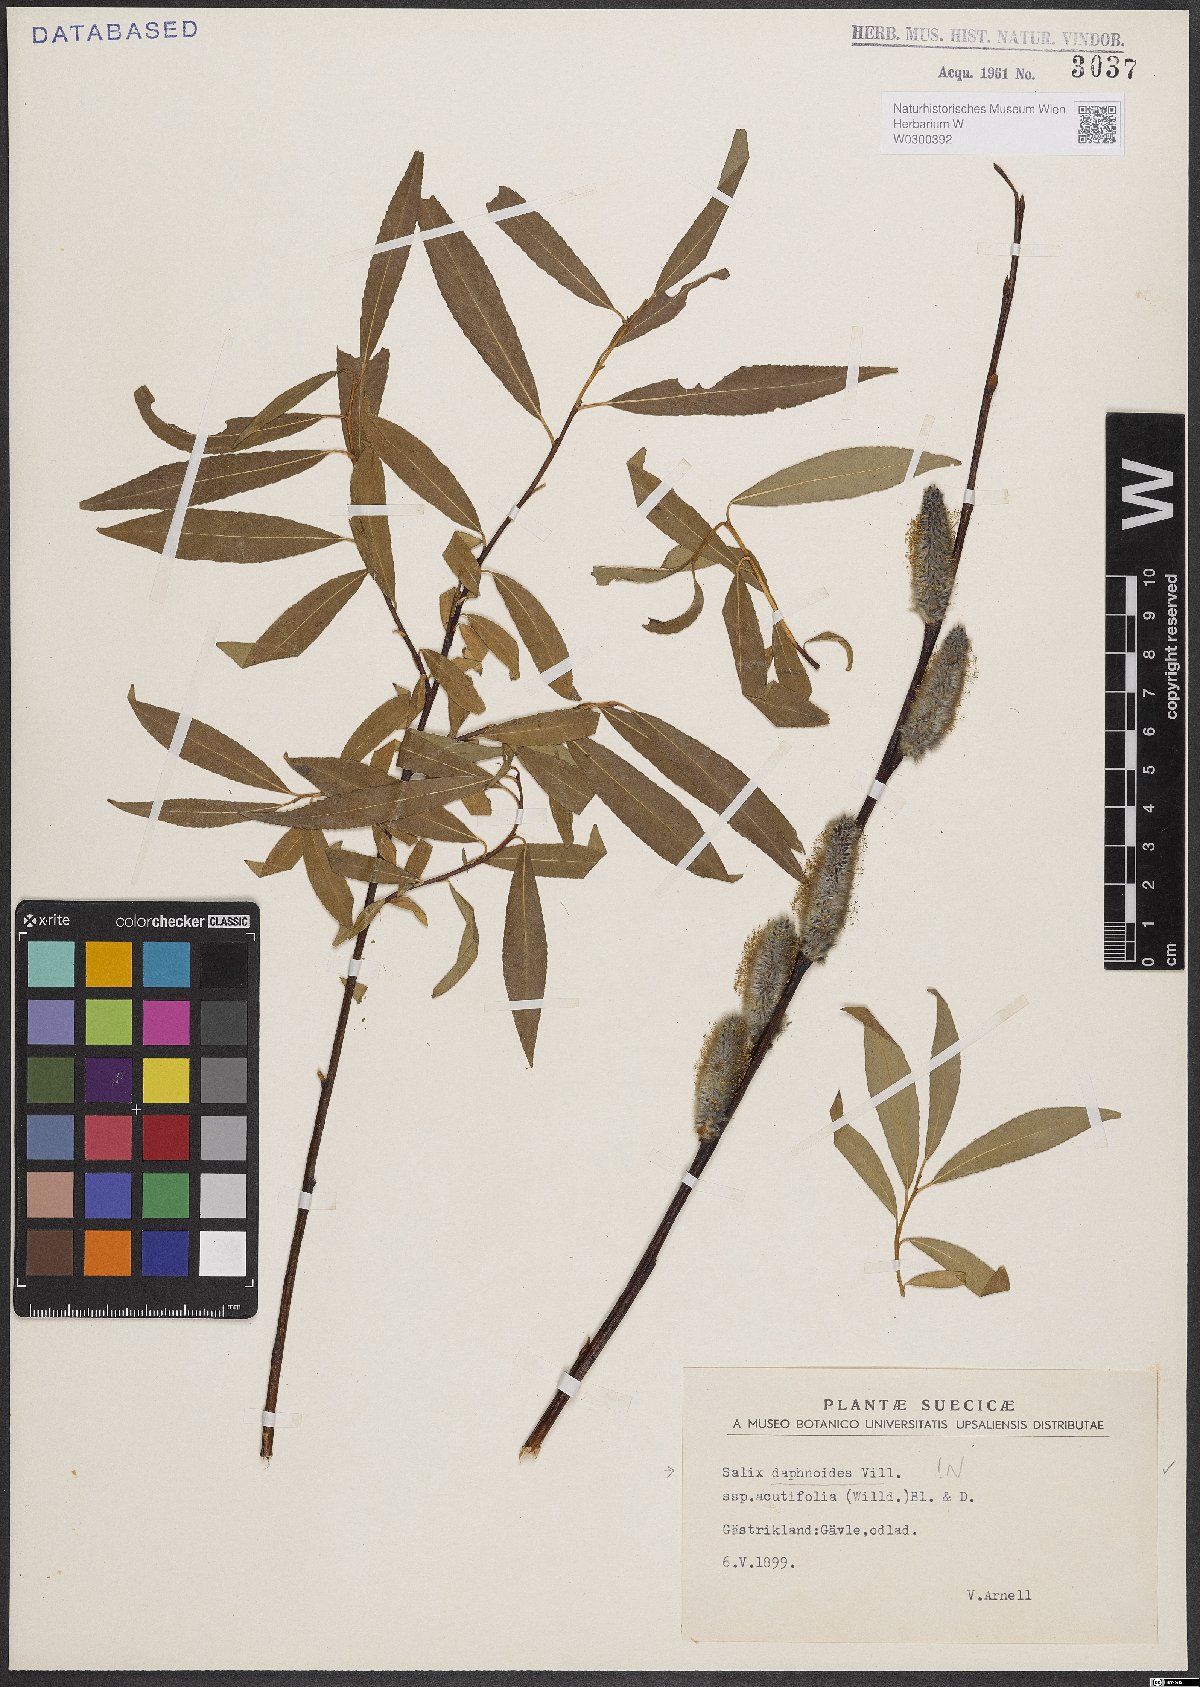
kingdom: Plantae
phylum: Tracheophyta
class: Magnoliopsida
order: Malpighiales
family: Salicaceae
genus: Salix
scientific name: Salix daphnoides
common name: European violet-willow
